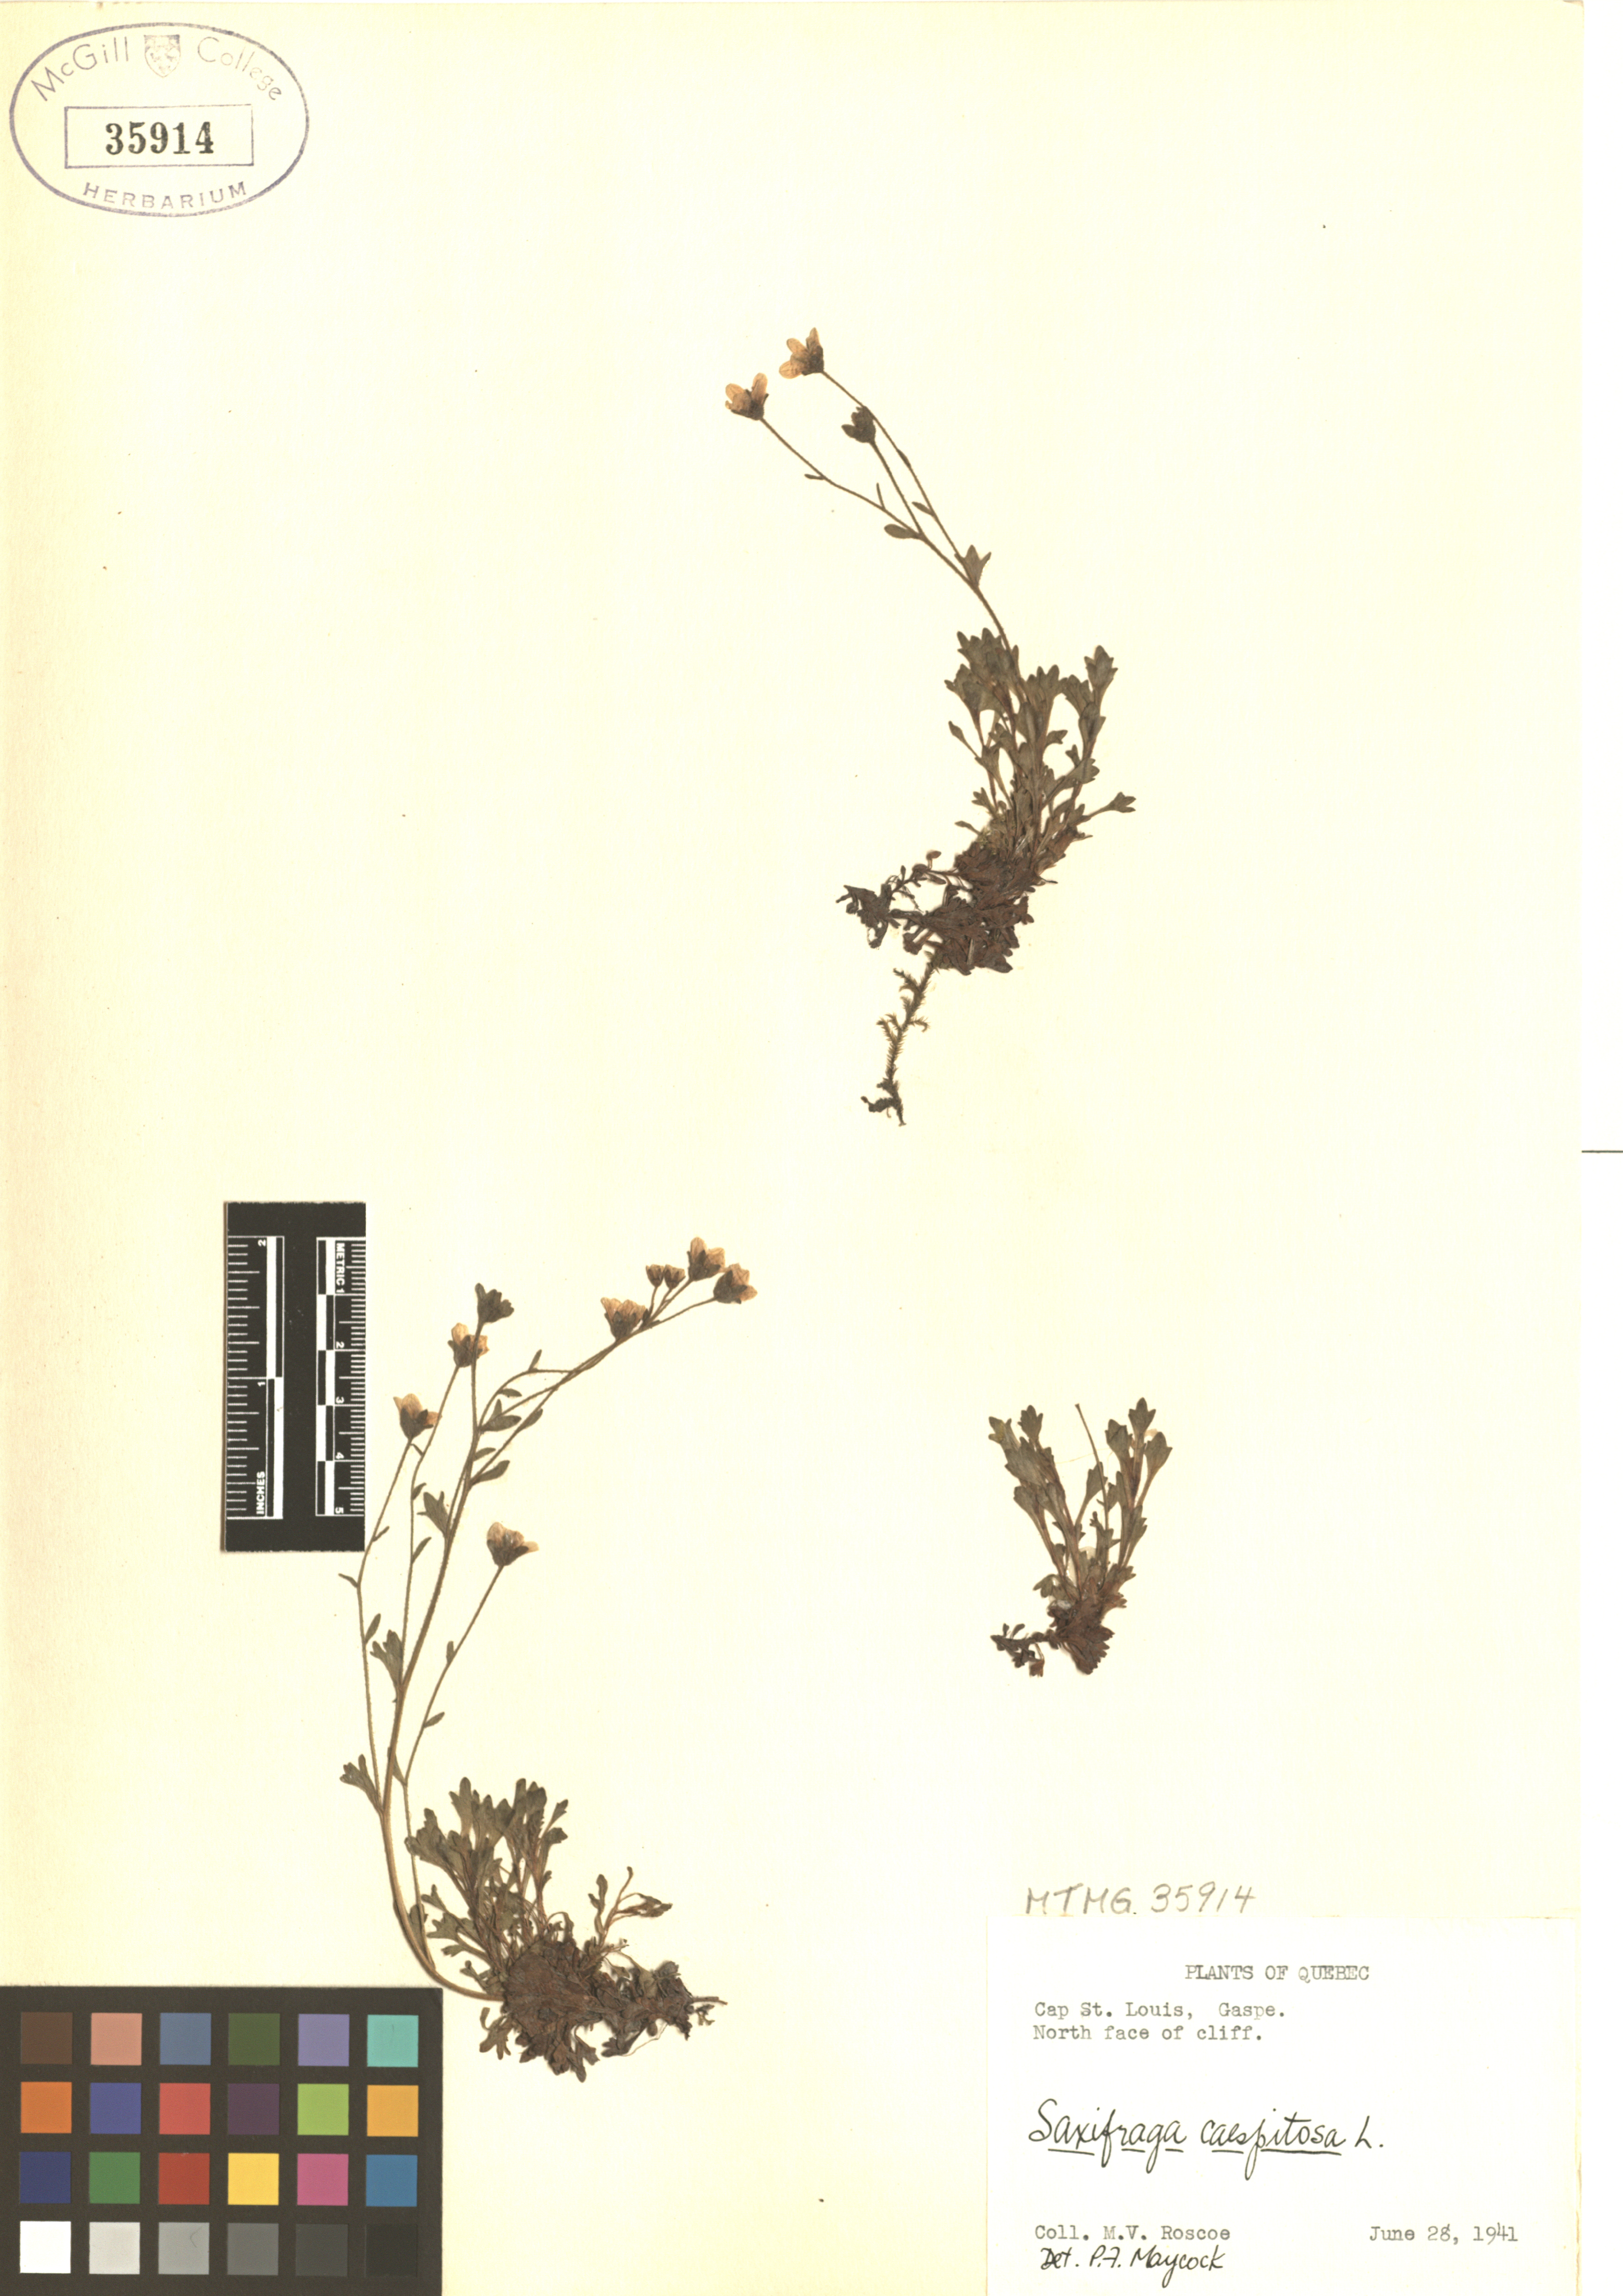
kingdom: Plantae
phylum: Tracheophyta
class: Magnoliopsida
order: Saxifragales
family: Saxifragaceae
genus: Saxifraga
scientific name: Saxifraga cespitosa
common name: Tufted saxifrage
